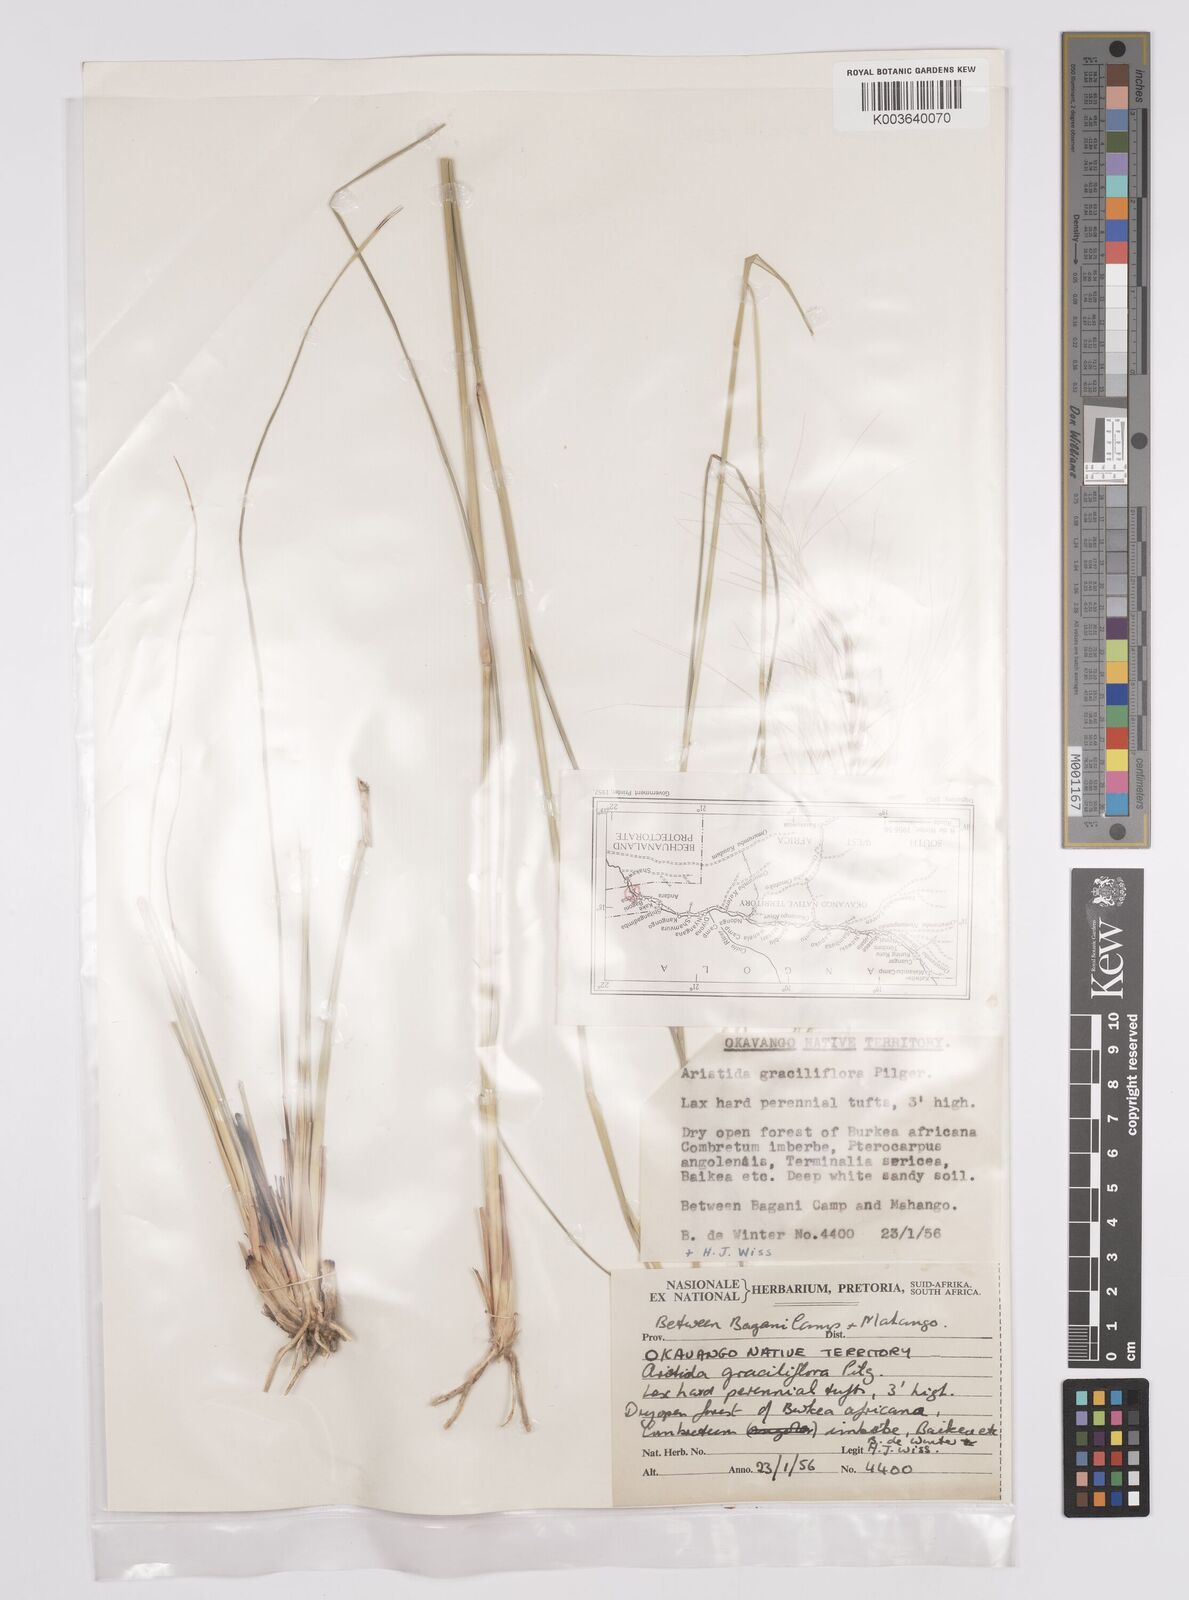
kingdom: Plantae
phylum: Tracheophyta
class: Liliopsida
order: Poales
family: Poaceae
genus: Aristida
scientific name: Aristida stipitata
